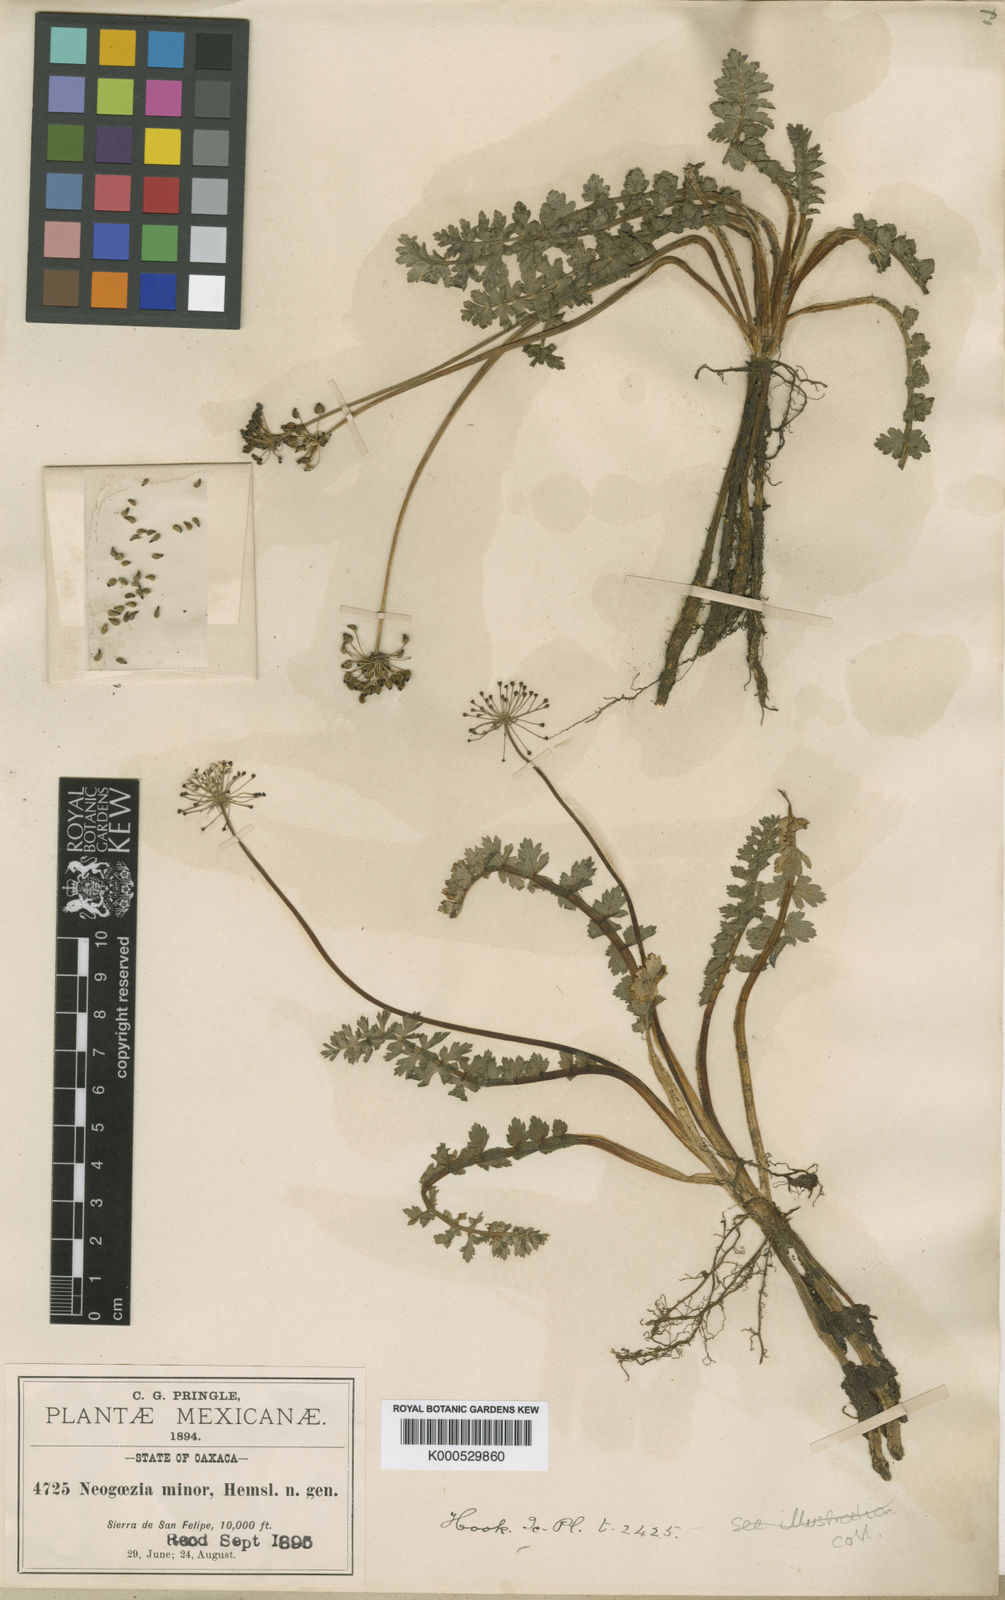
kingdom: Plantae
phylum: Tracheophyta
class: Magnoliopsida
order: Apiales
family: Apiaceae
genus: Neogoezia
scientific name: Neogoezia minor
